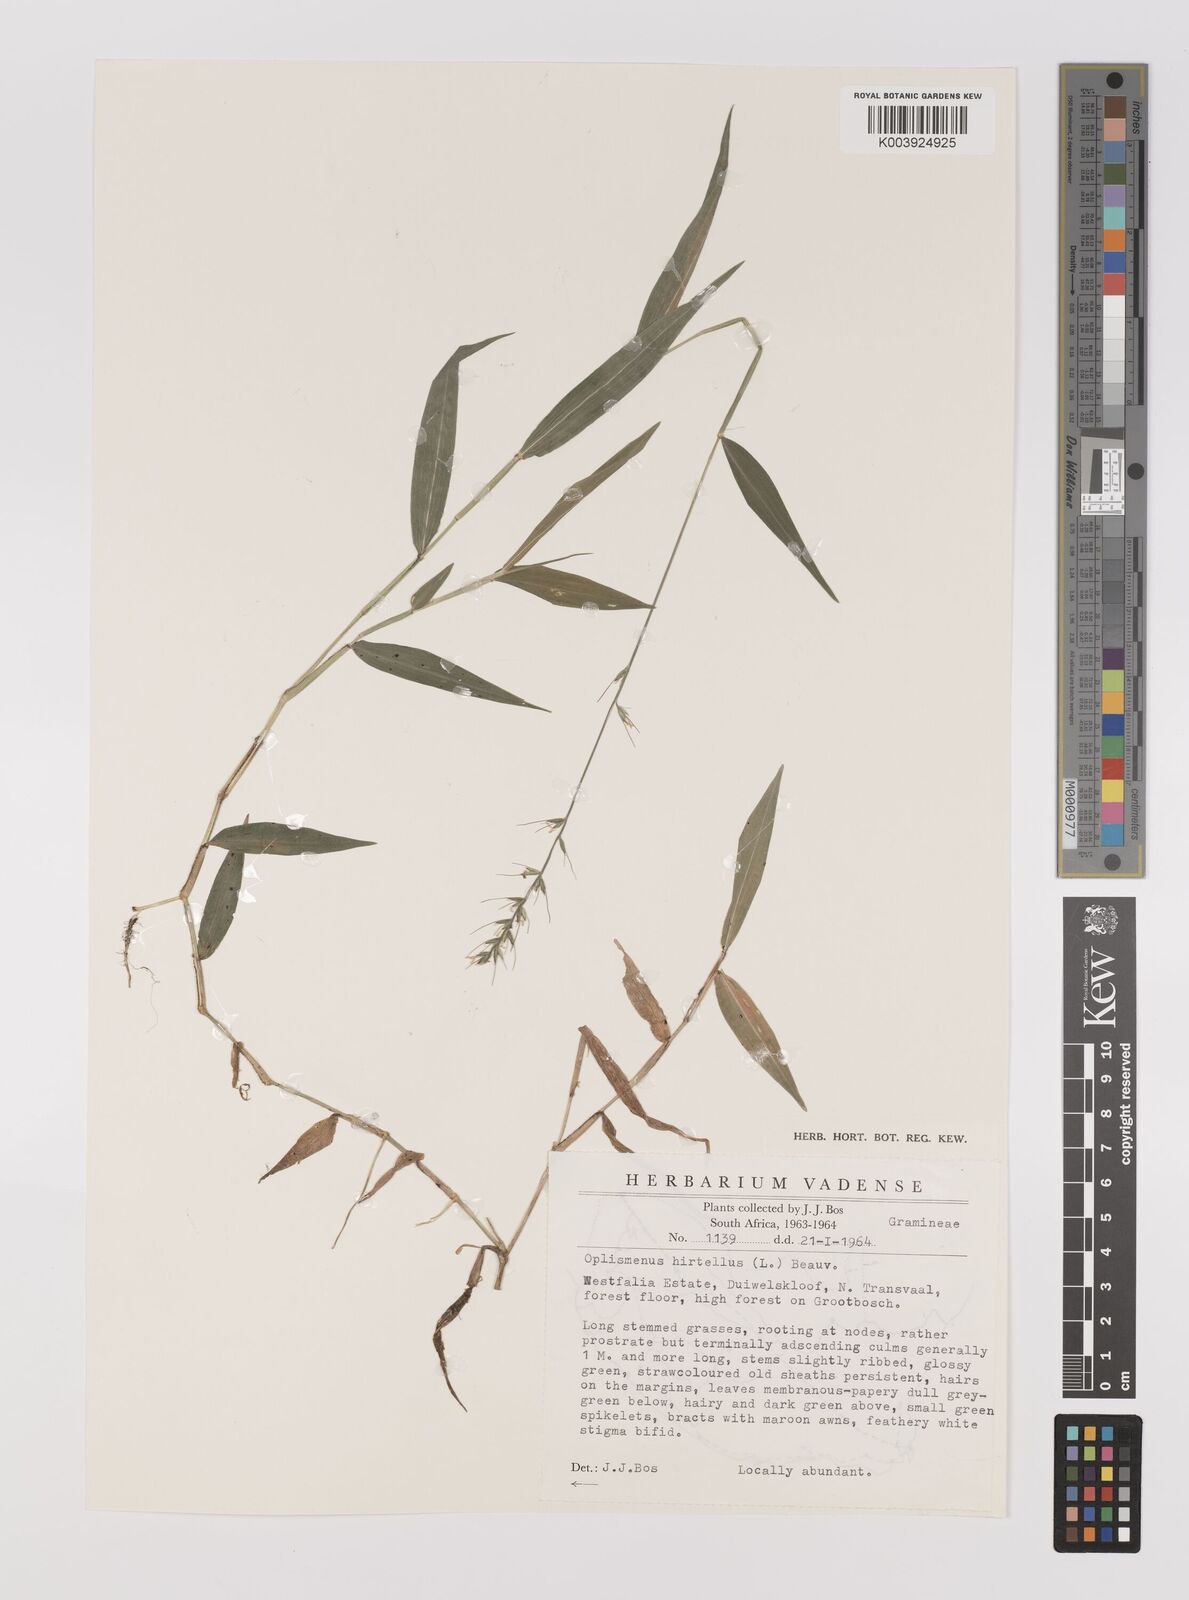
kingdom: Plantae
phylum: Tracheophyta
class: Liliopsida
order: Poales
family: Poaceae
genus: Oplismenus
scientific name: Oplismenus undulatifolius
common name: Wavyleaf basketgrass
